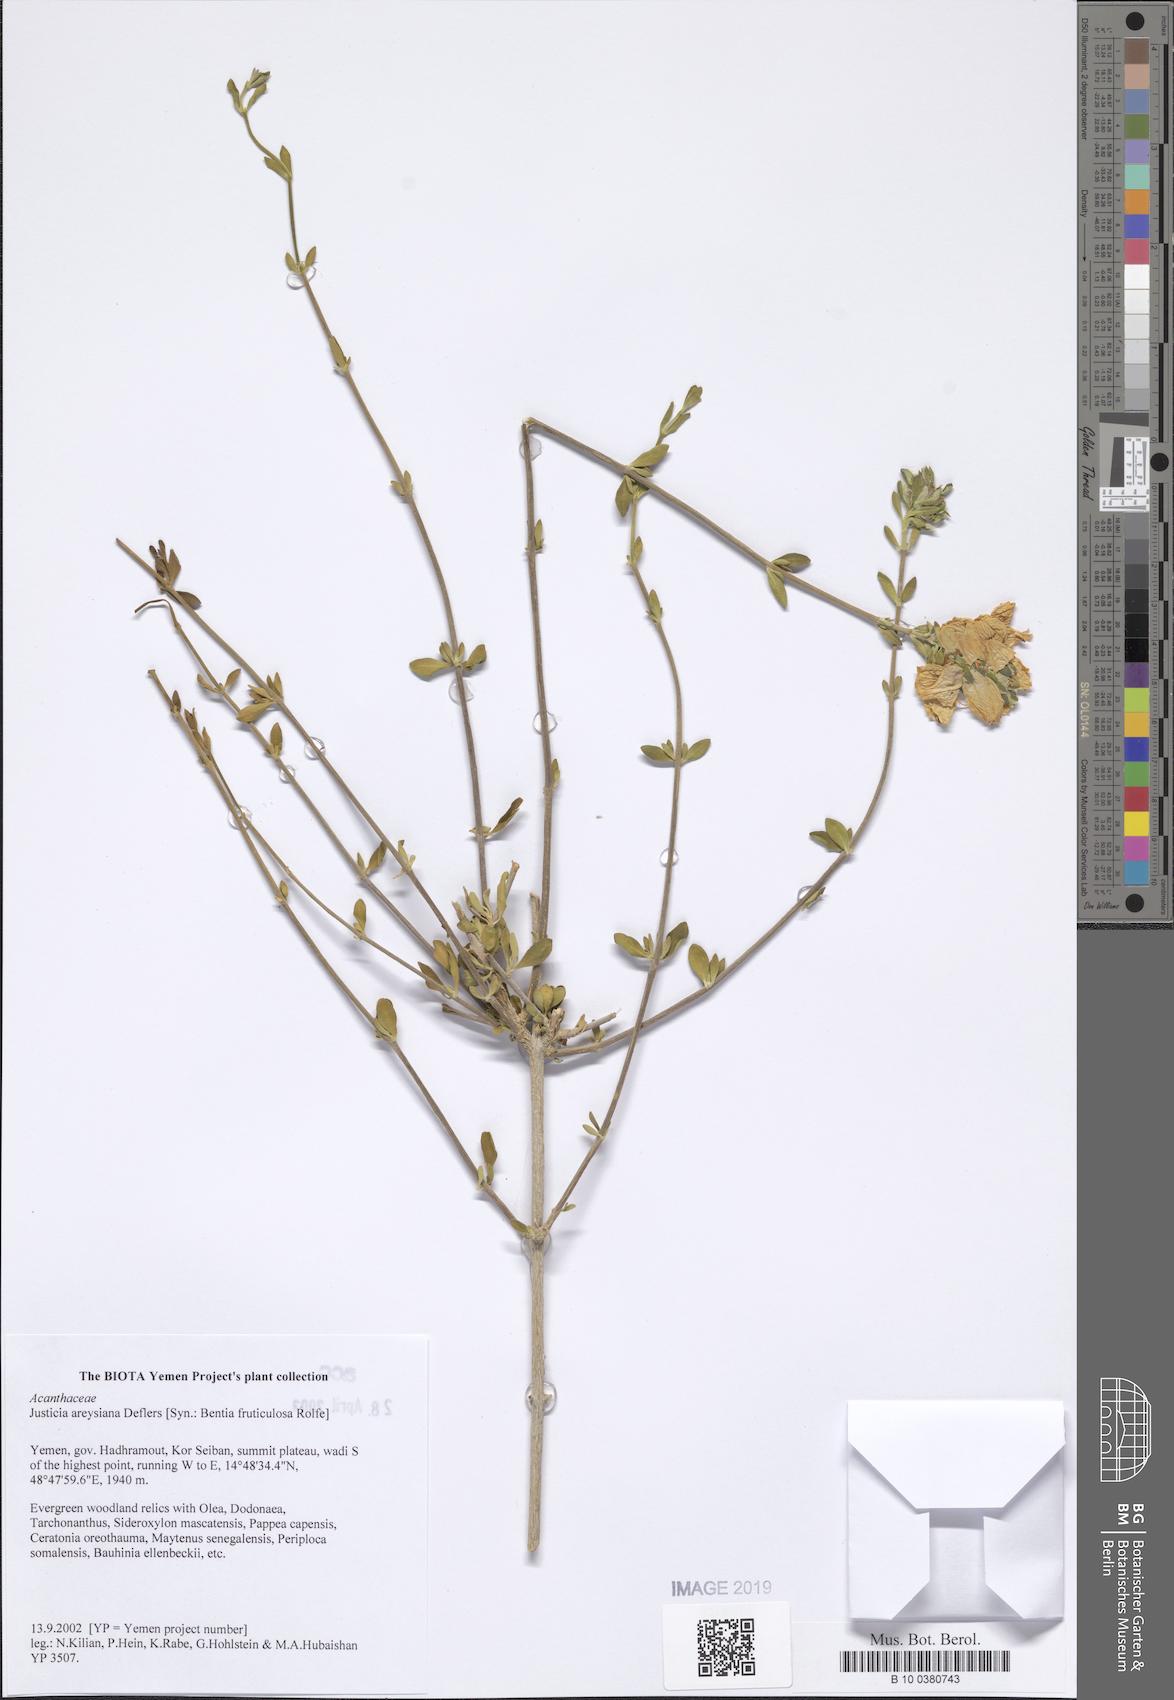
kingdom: Plantae
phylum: Tracheophyta
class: Magnoliopsida
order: Lamiales
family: Acanthaceae
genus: Justicia
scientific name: Justicia areysiana
